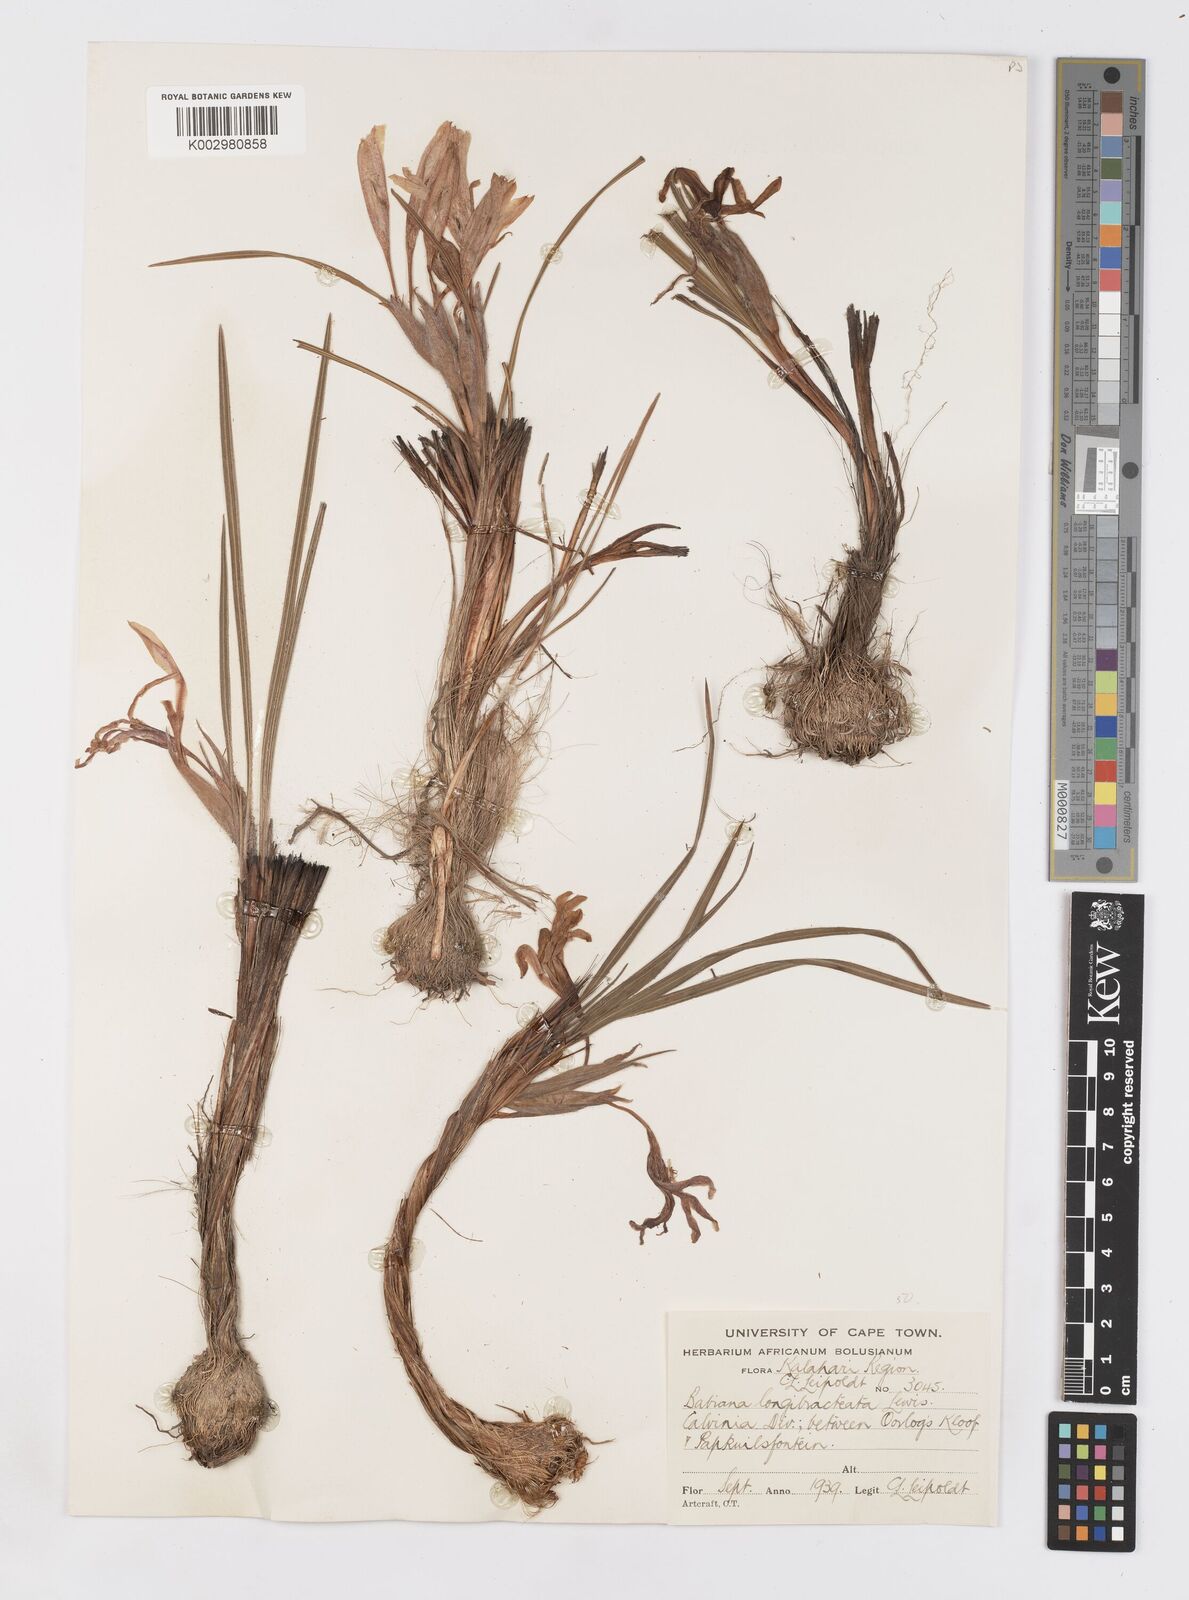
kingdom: Plantae
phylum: Tracheophyta
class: Liliopsida
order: Asparagales
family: Iridaceae
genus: Babiana
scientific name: Babiana sambucina
